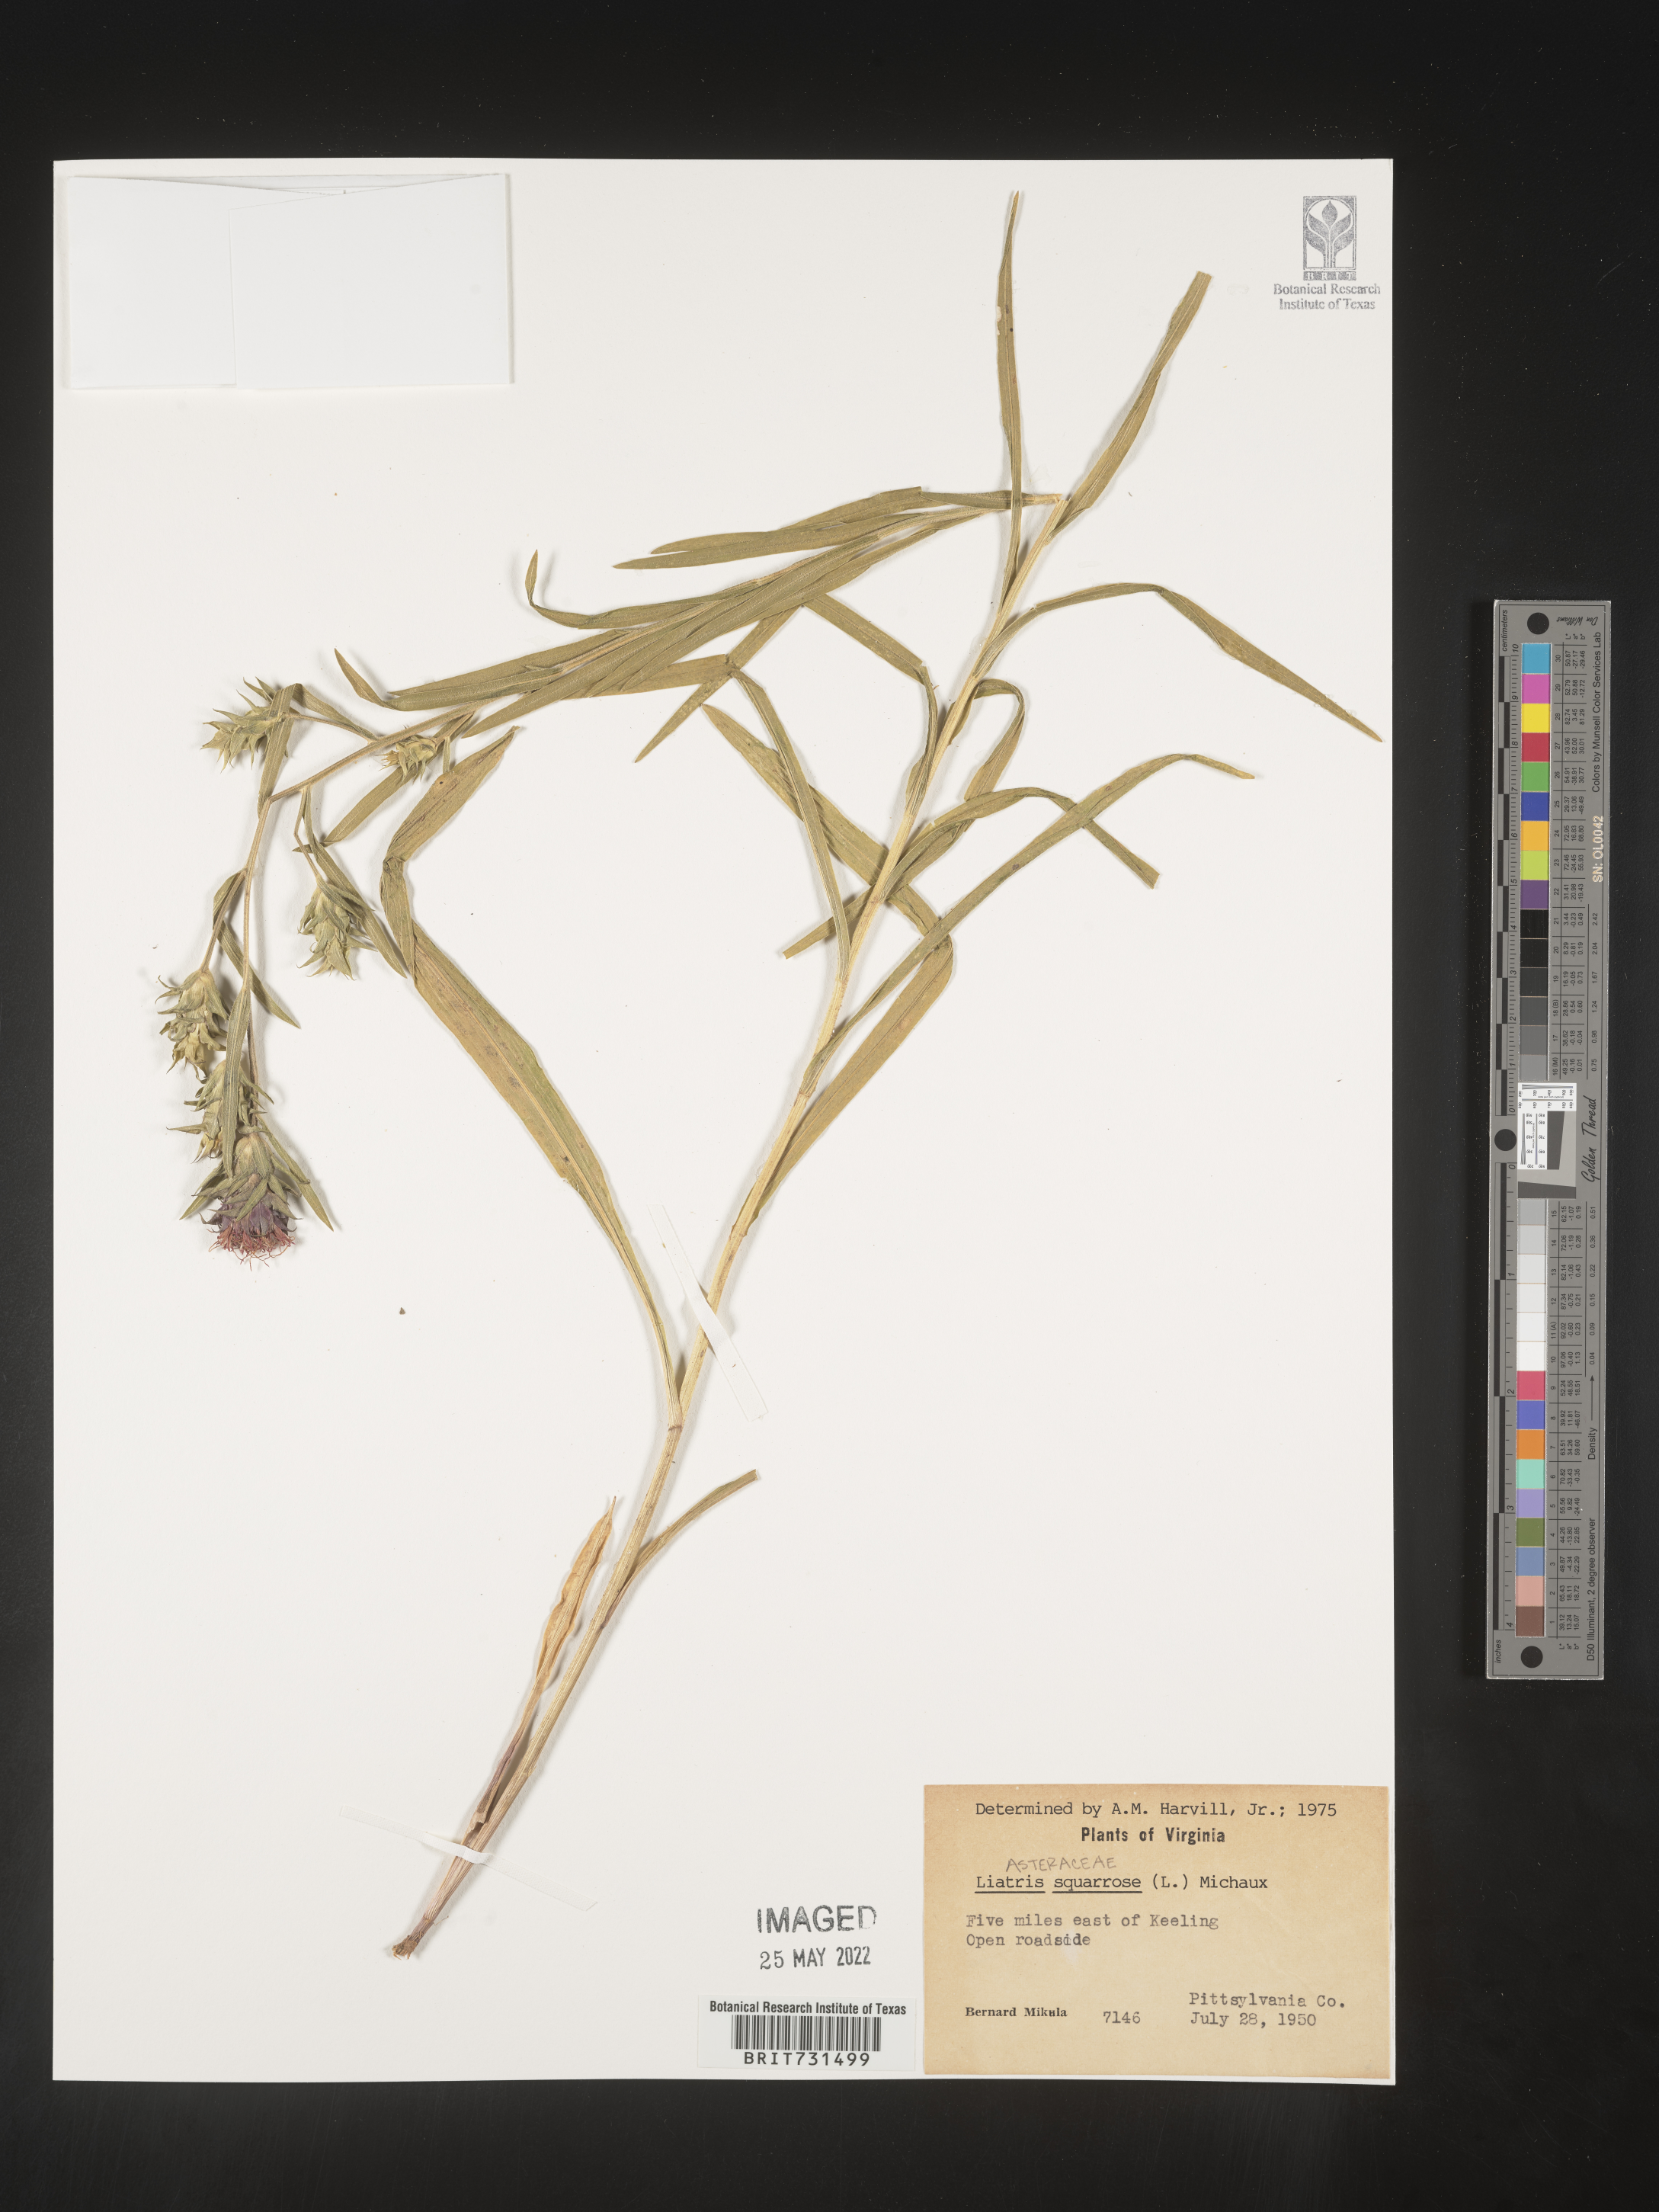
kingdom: Plantae
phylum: Tracheophyta
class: Magnoliopsida
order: Asterales
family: Asteraceae
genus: Liatris
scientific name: Liatris squarrulosa
